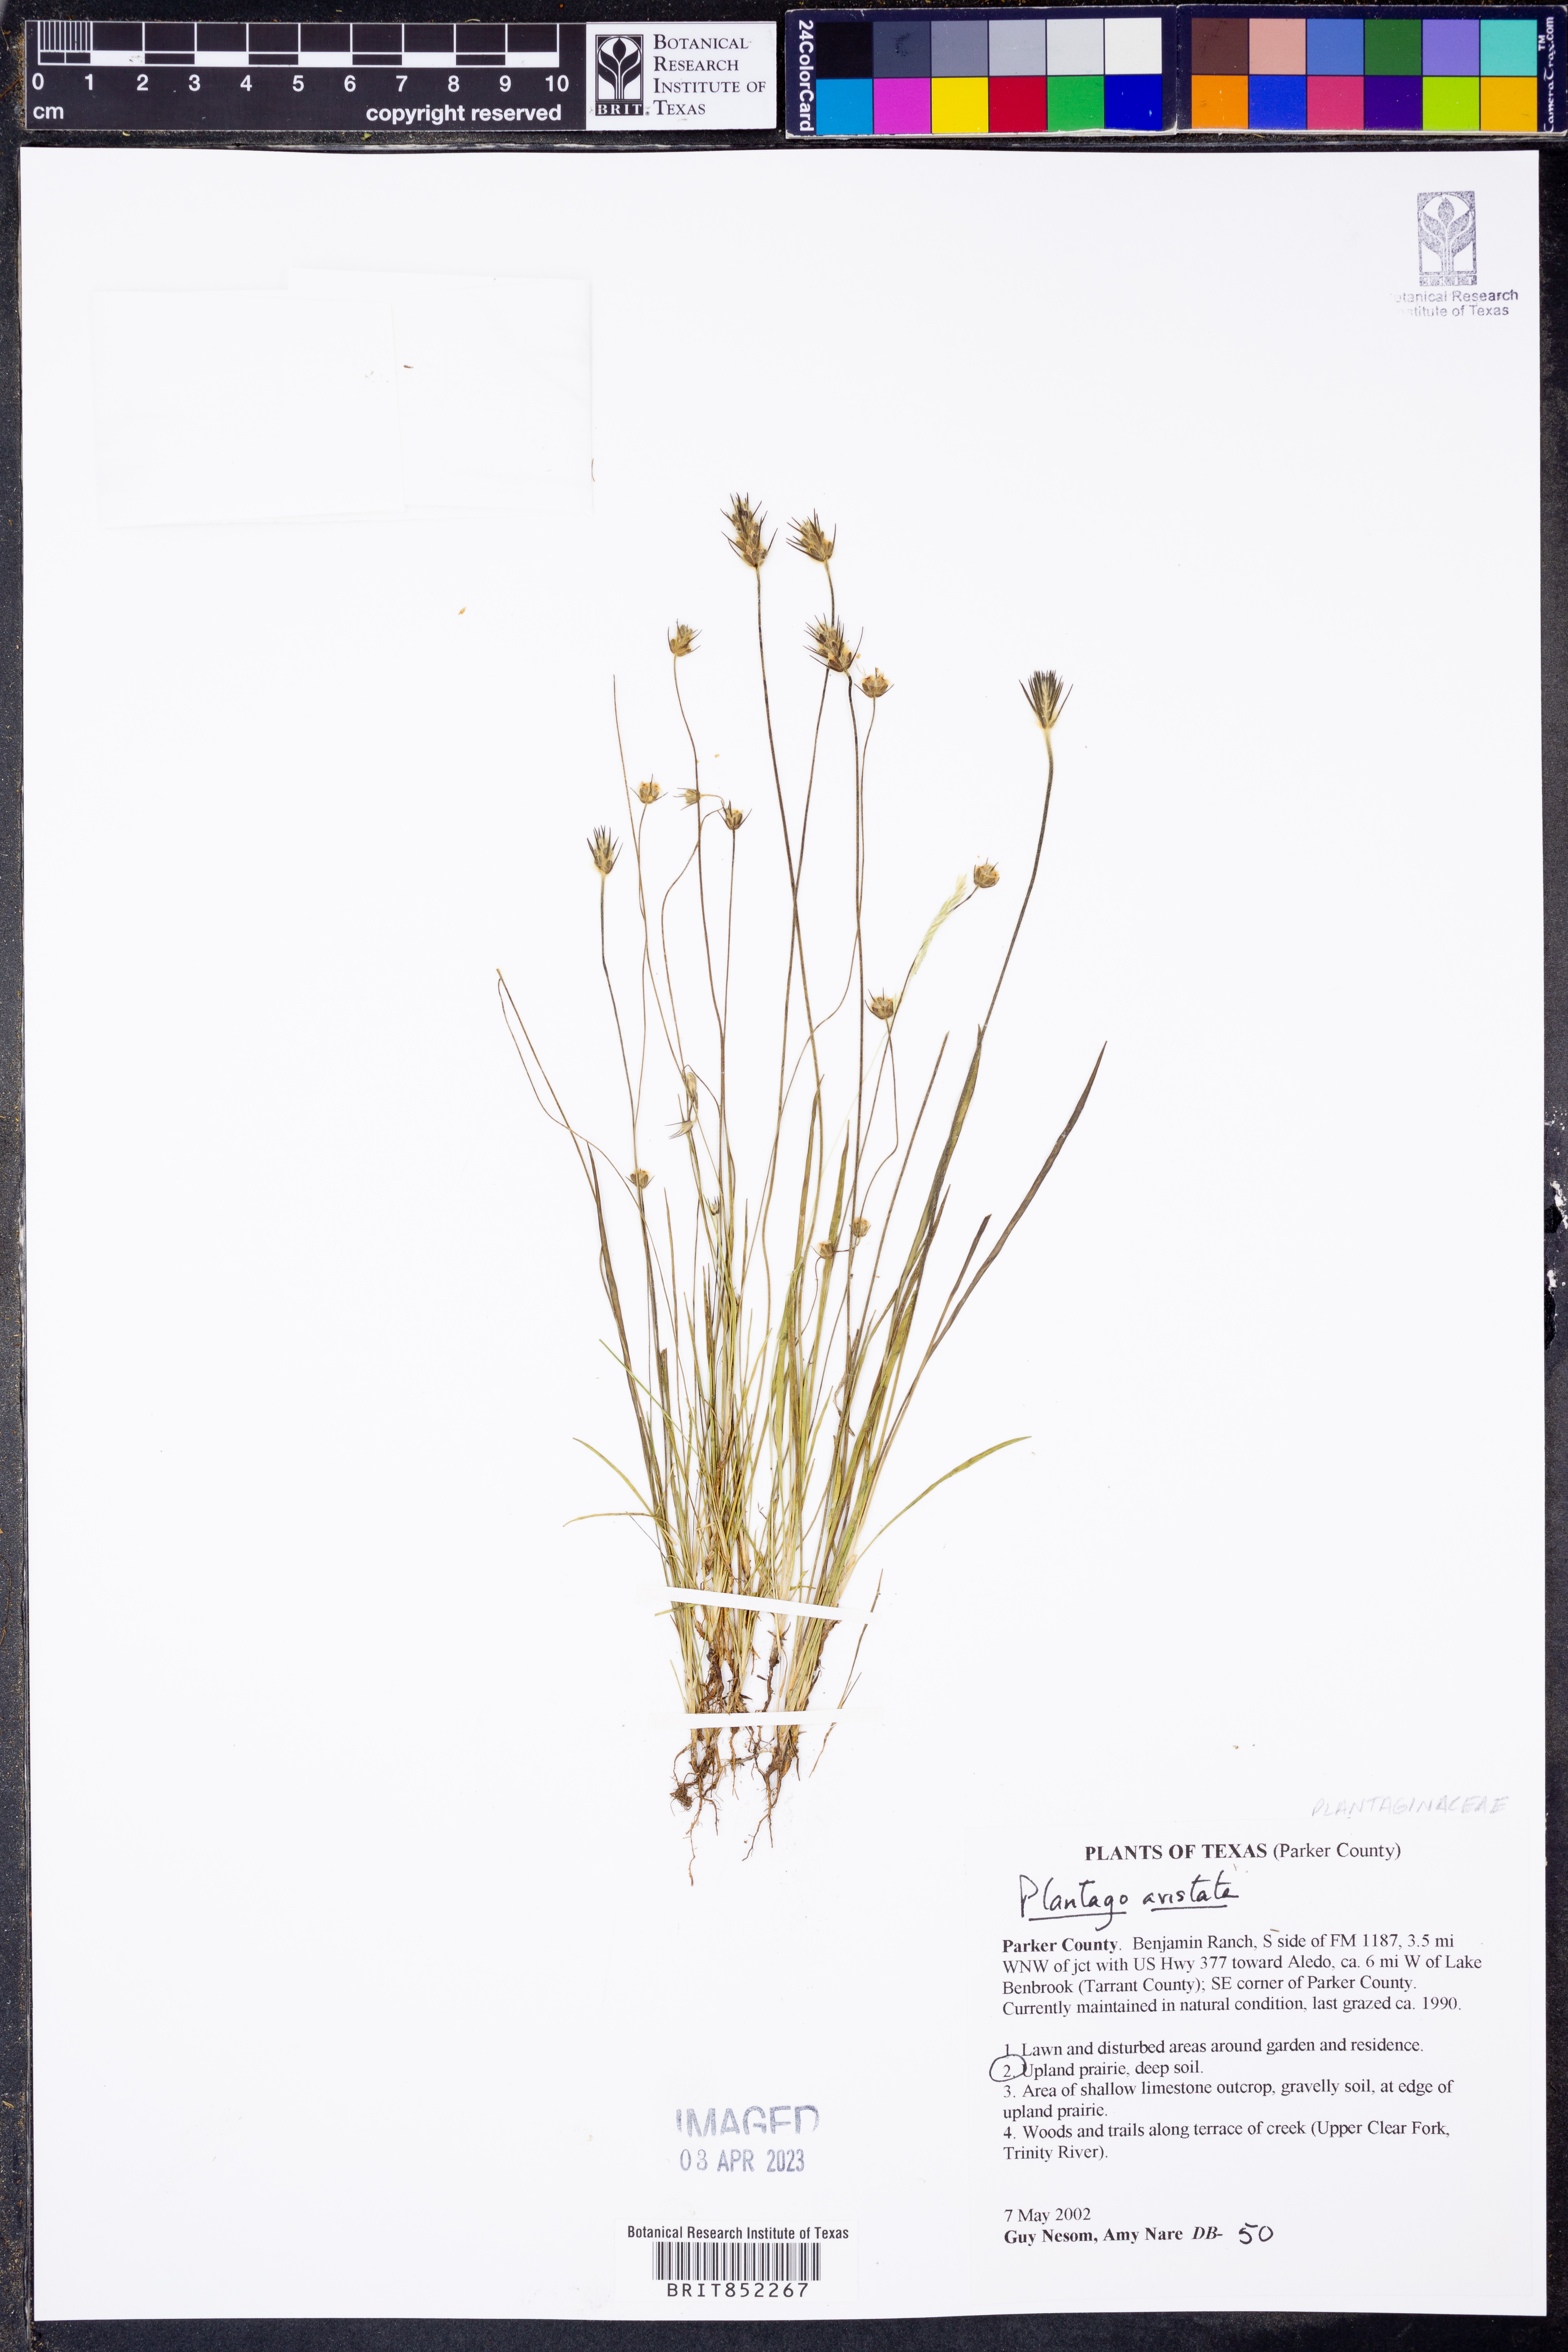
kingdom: Plantae
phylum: Tracheophyta
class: Magnoliopsida
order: Lamiales
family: Plantaginaceae
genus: Plantago
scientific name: Plantago aristata
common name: Bracted plantain
